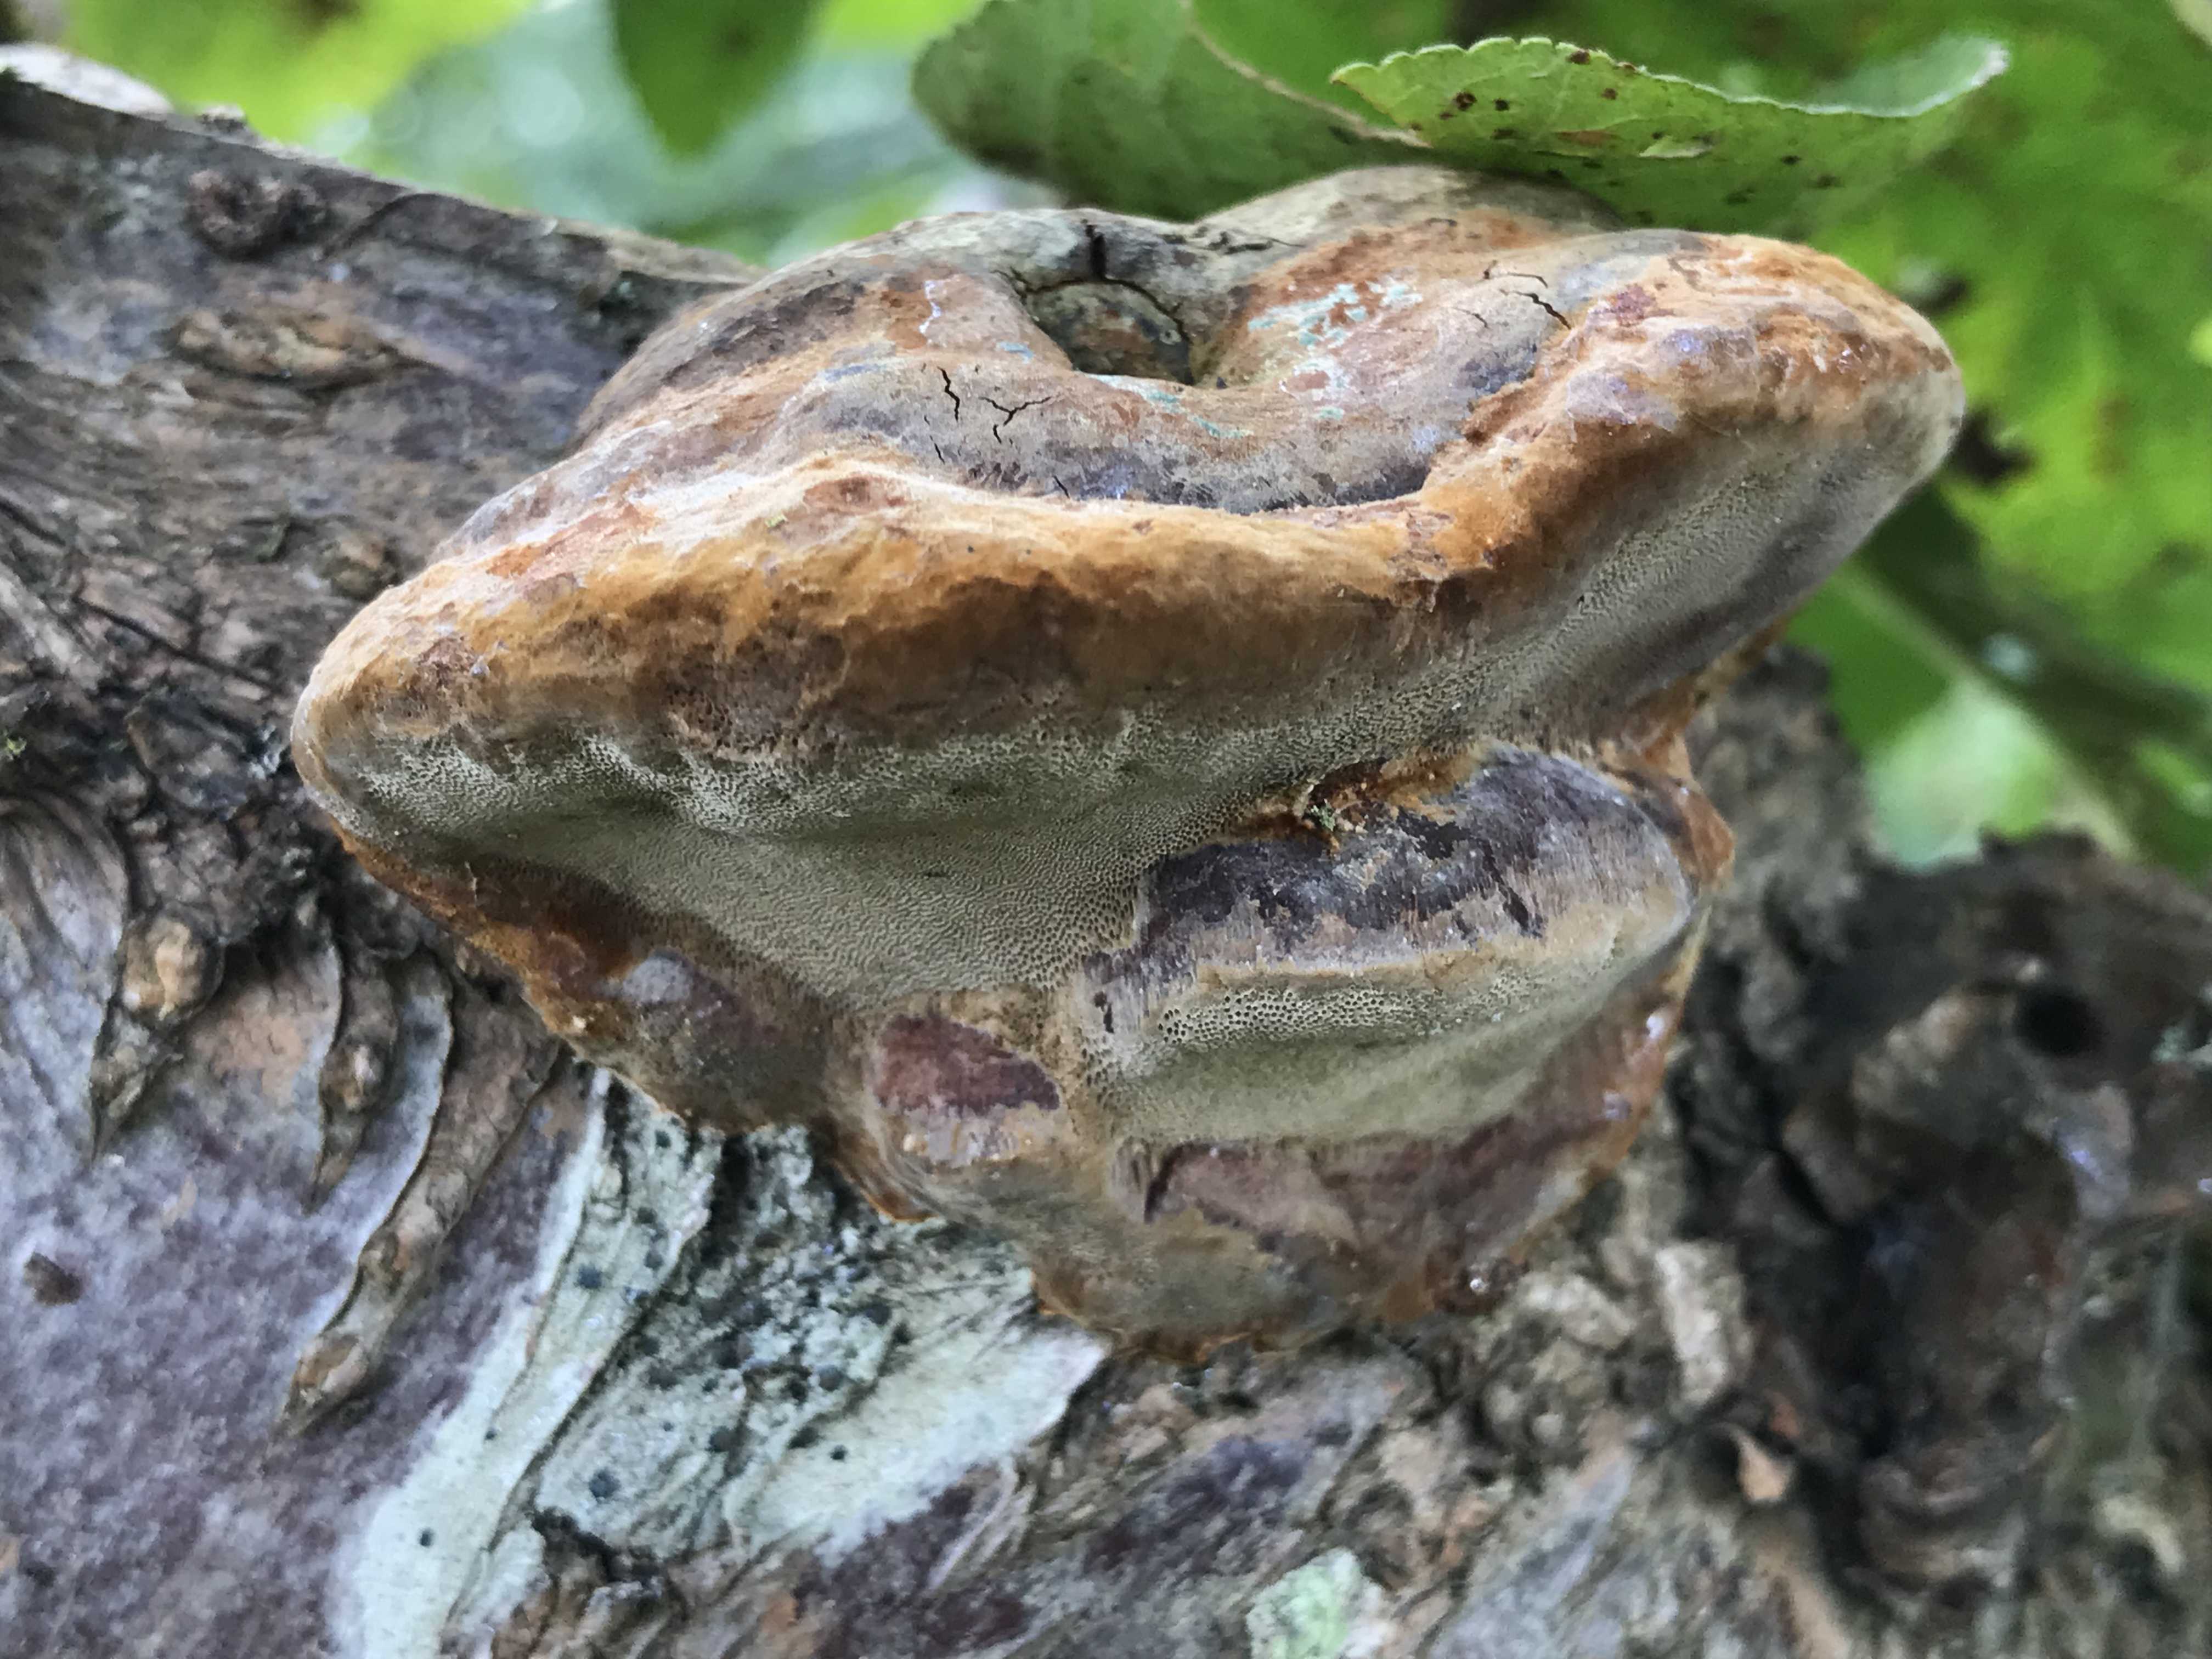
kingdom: Fungi
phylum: Basidiomycota
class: Agaricomycetes
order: Hymenochaetales
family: Hymenochaetaceae
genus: Phellinus
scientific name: Phellinus pomaceus
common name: blomme-ildporesvamp
